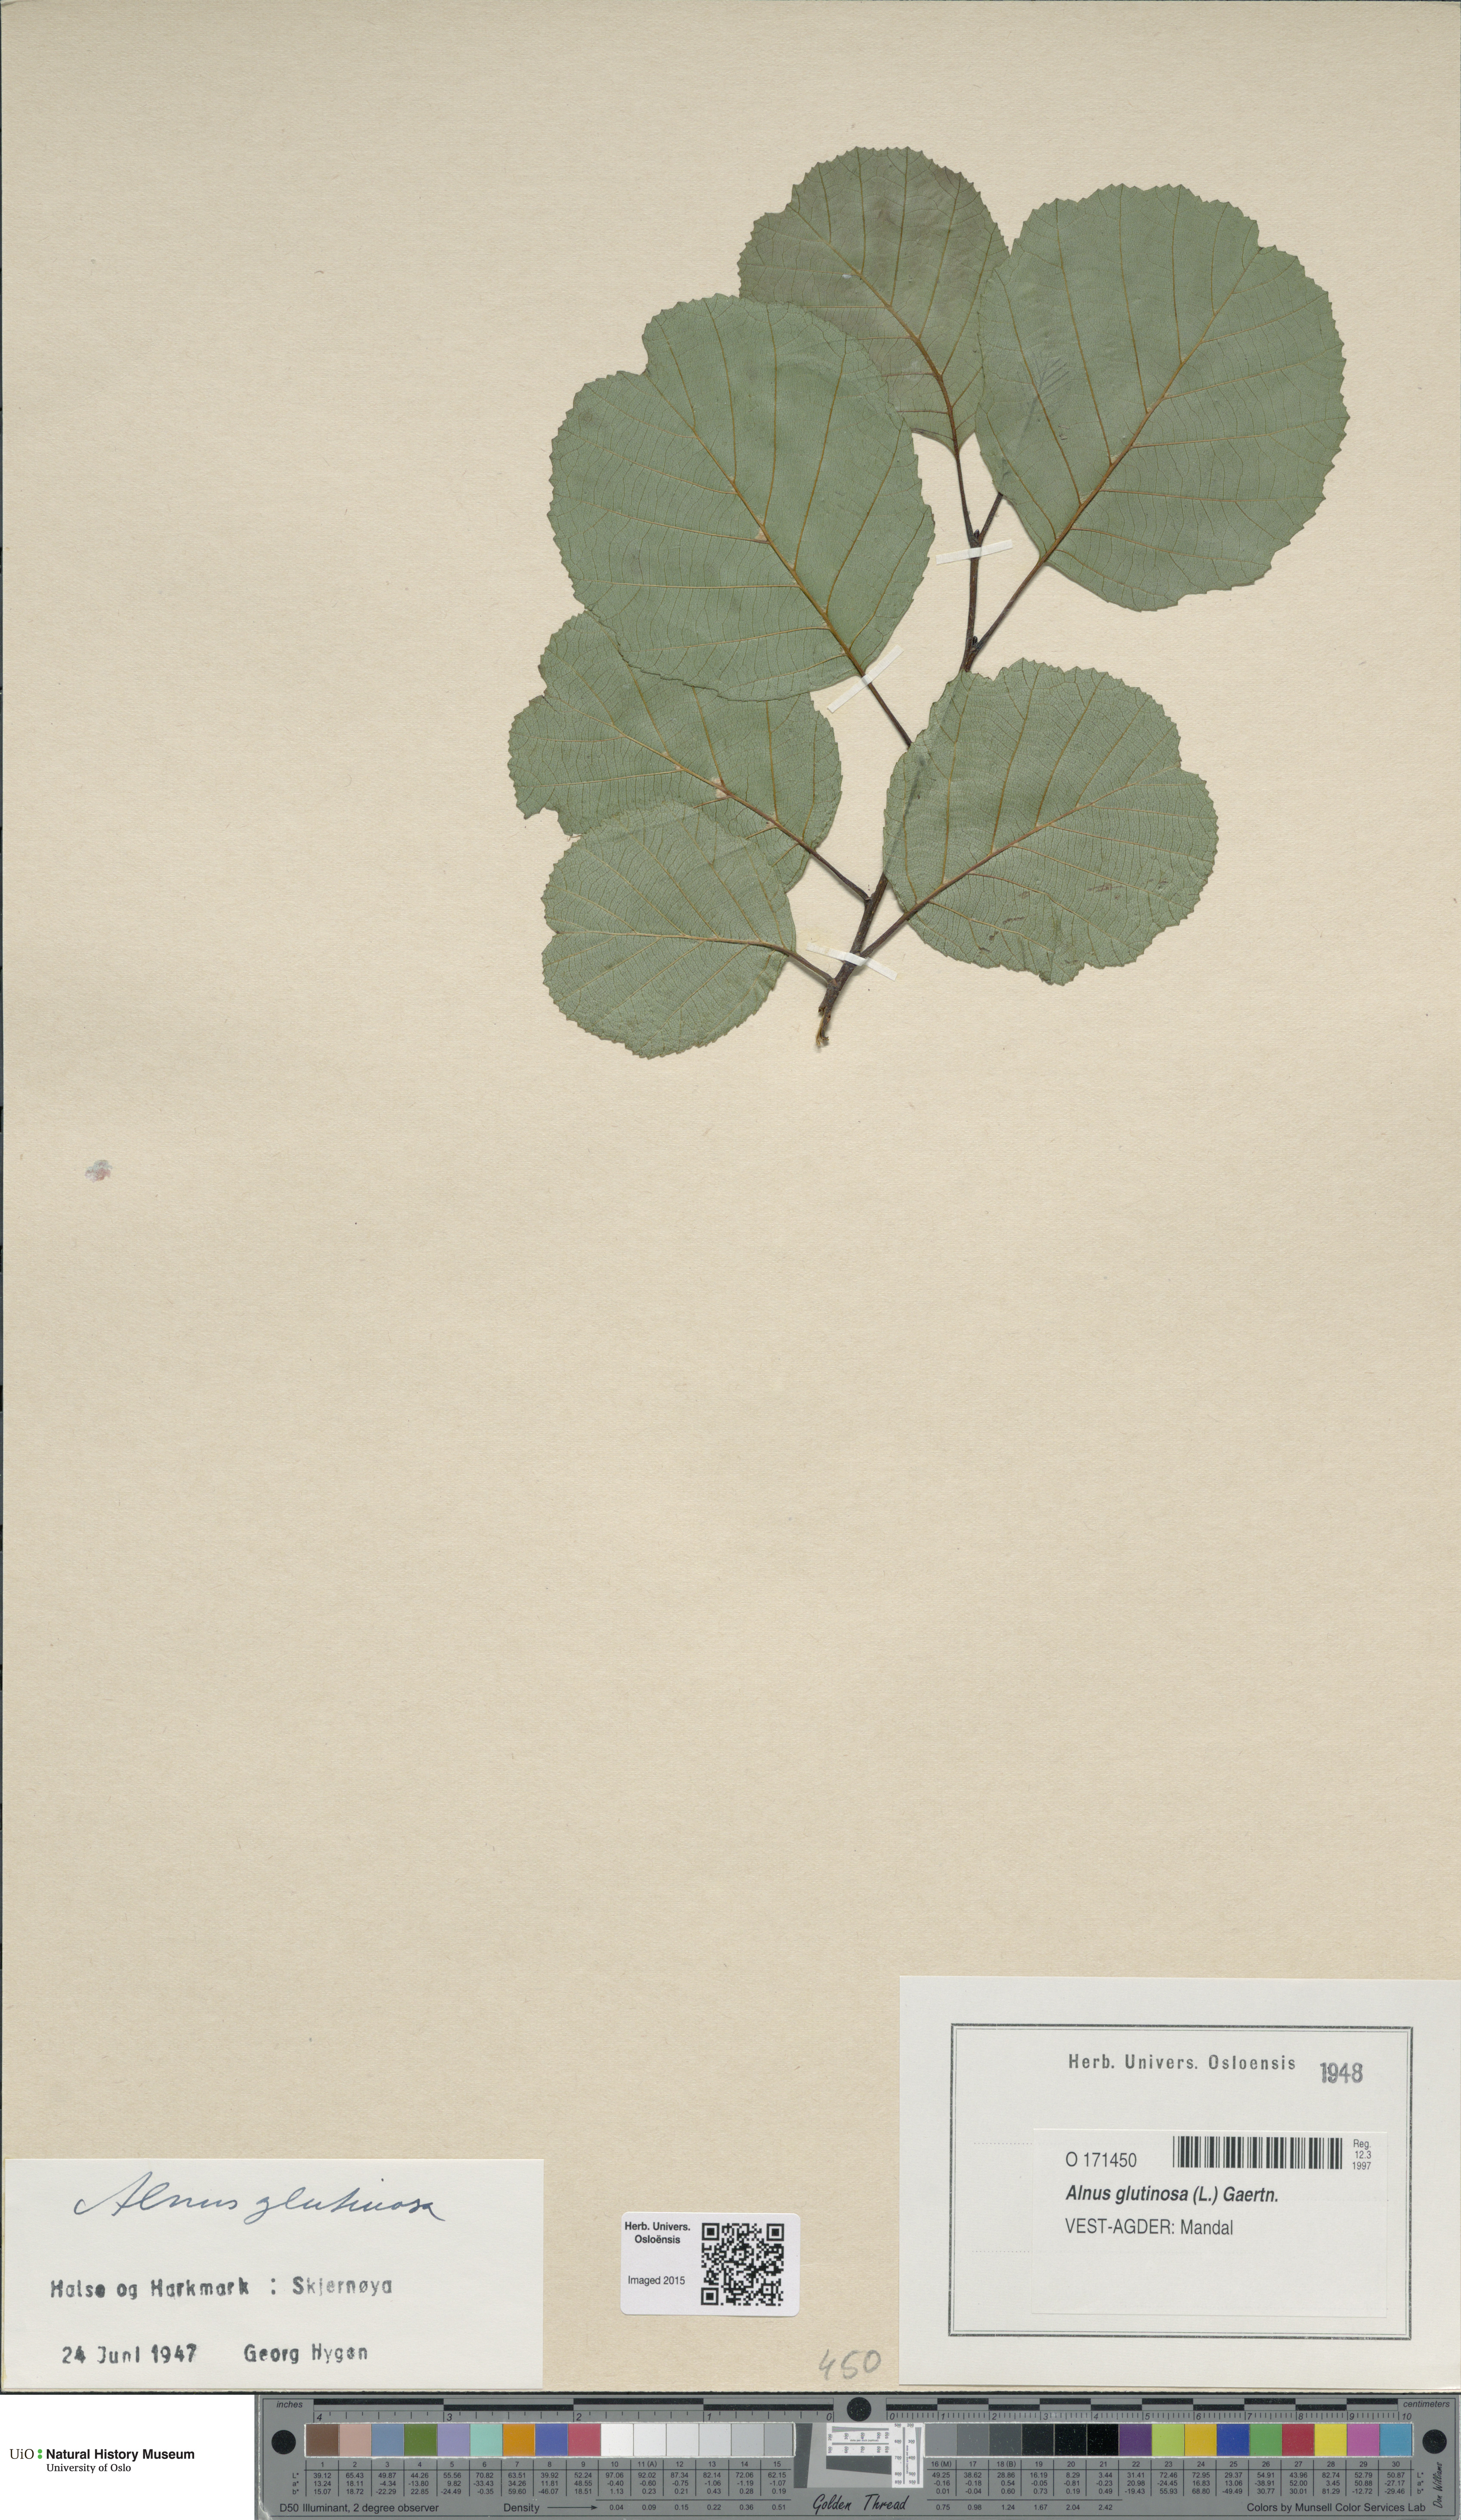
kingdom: Plantae
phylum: Tracheophyta
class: Magnoliopsida
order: Fagales
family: Betulaceae
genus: Alnus
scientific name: Alnus glutinosa
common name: Black alder
